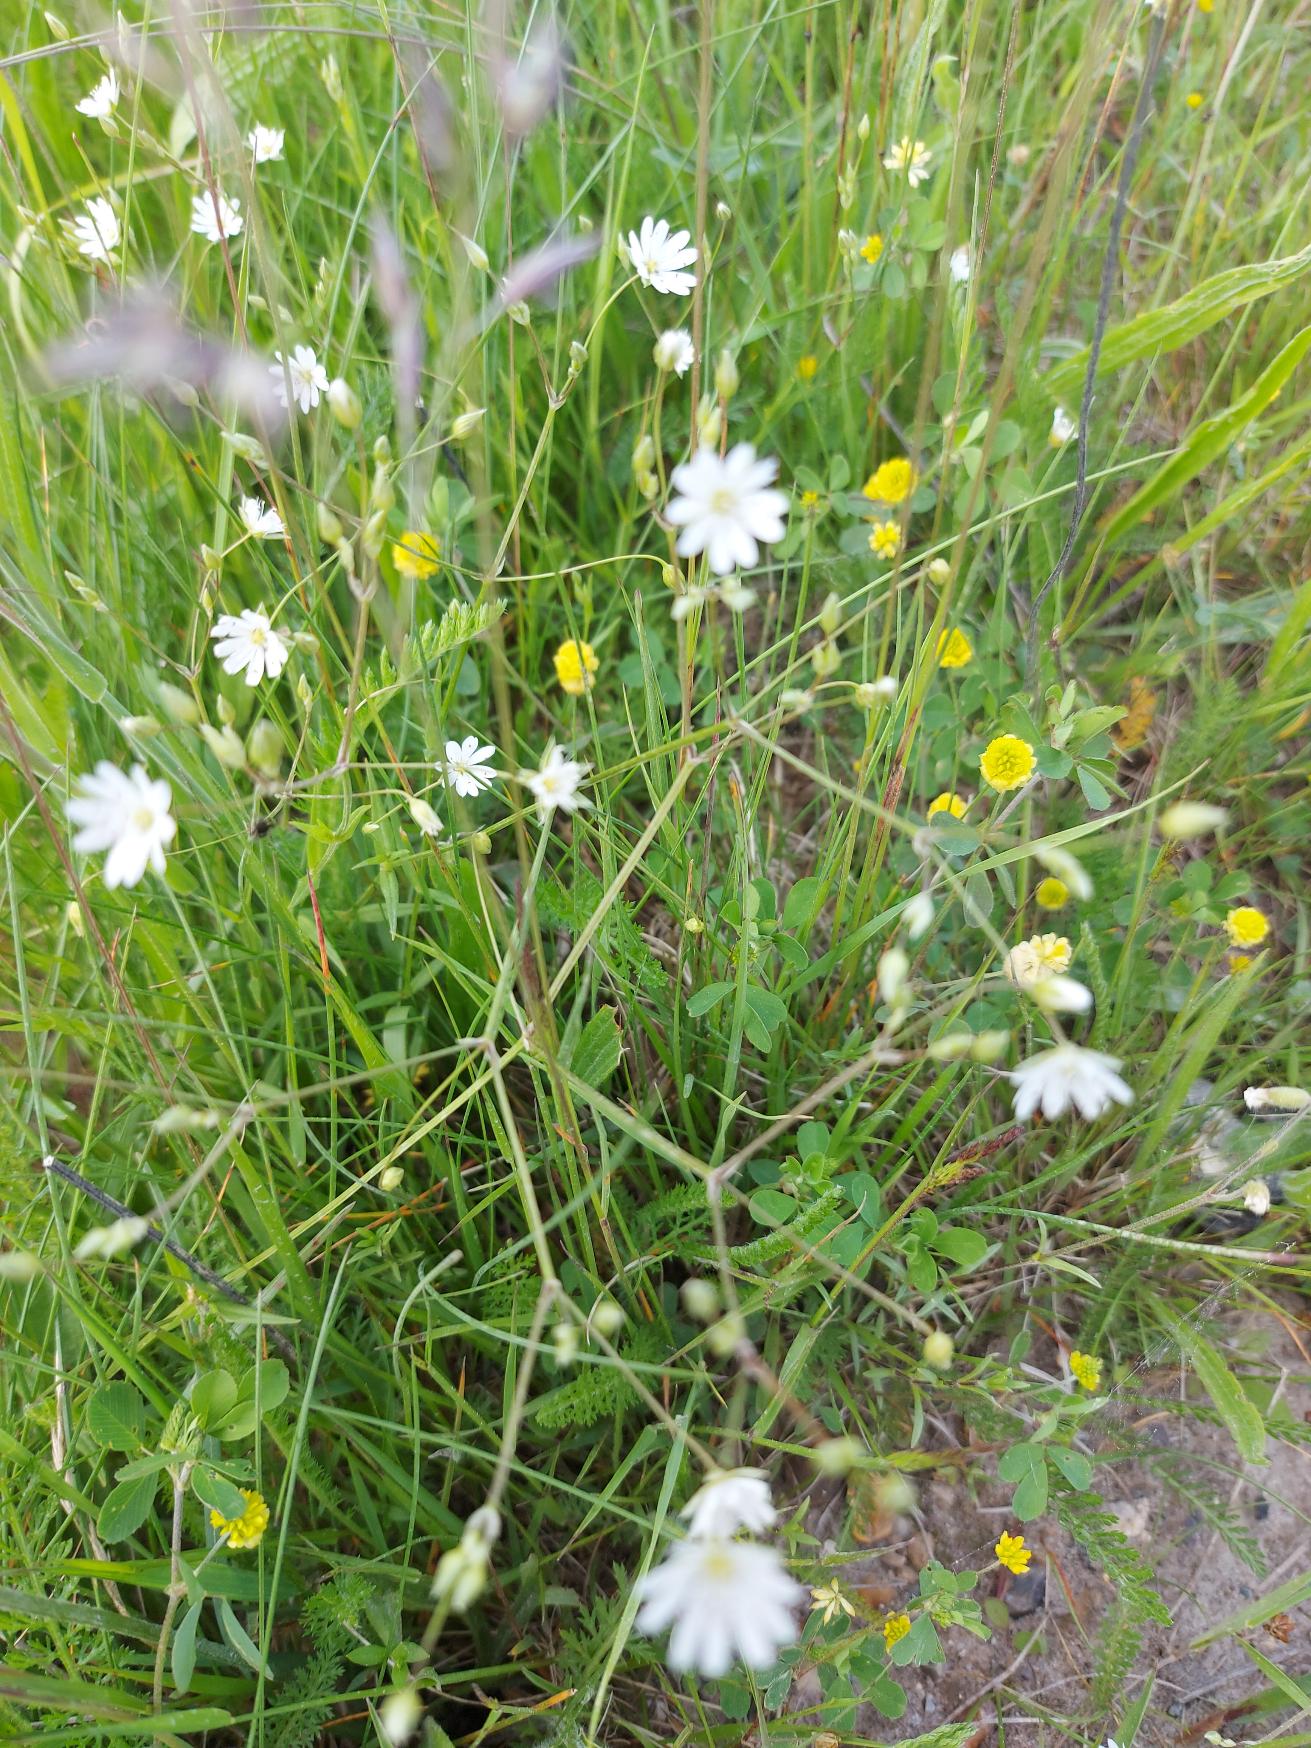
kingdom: Plantae
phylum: Tracheophyta
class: Magnoliopsida
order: Caryophyllales
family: Caryophyllaceae
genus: Stellaria
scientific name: Stellaria graminea
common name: Græsbladet fladstjerne
